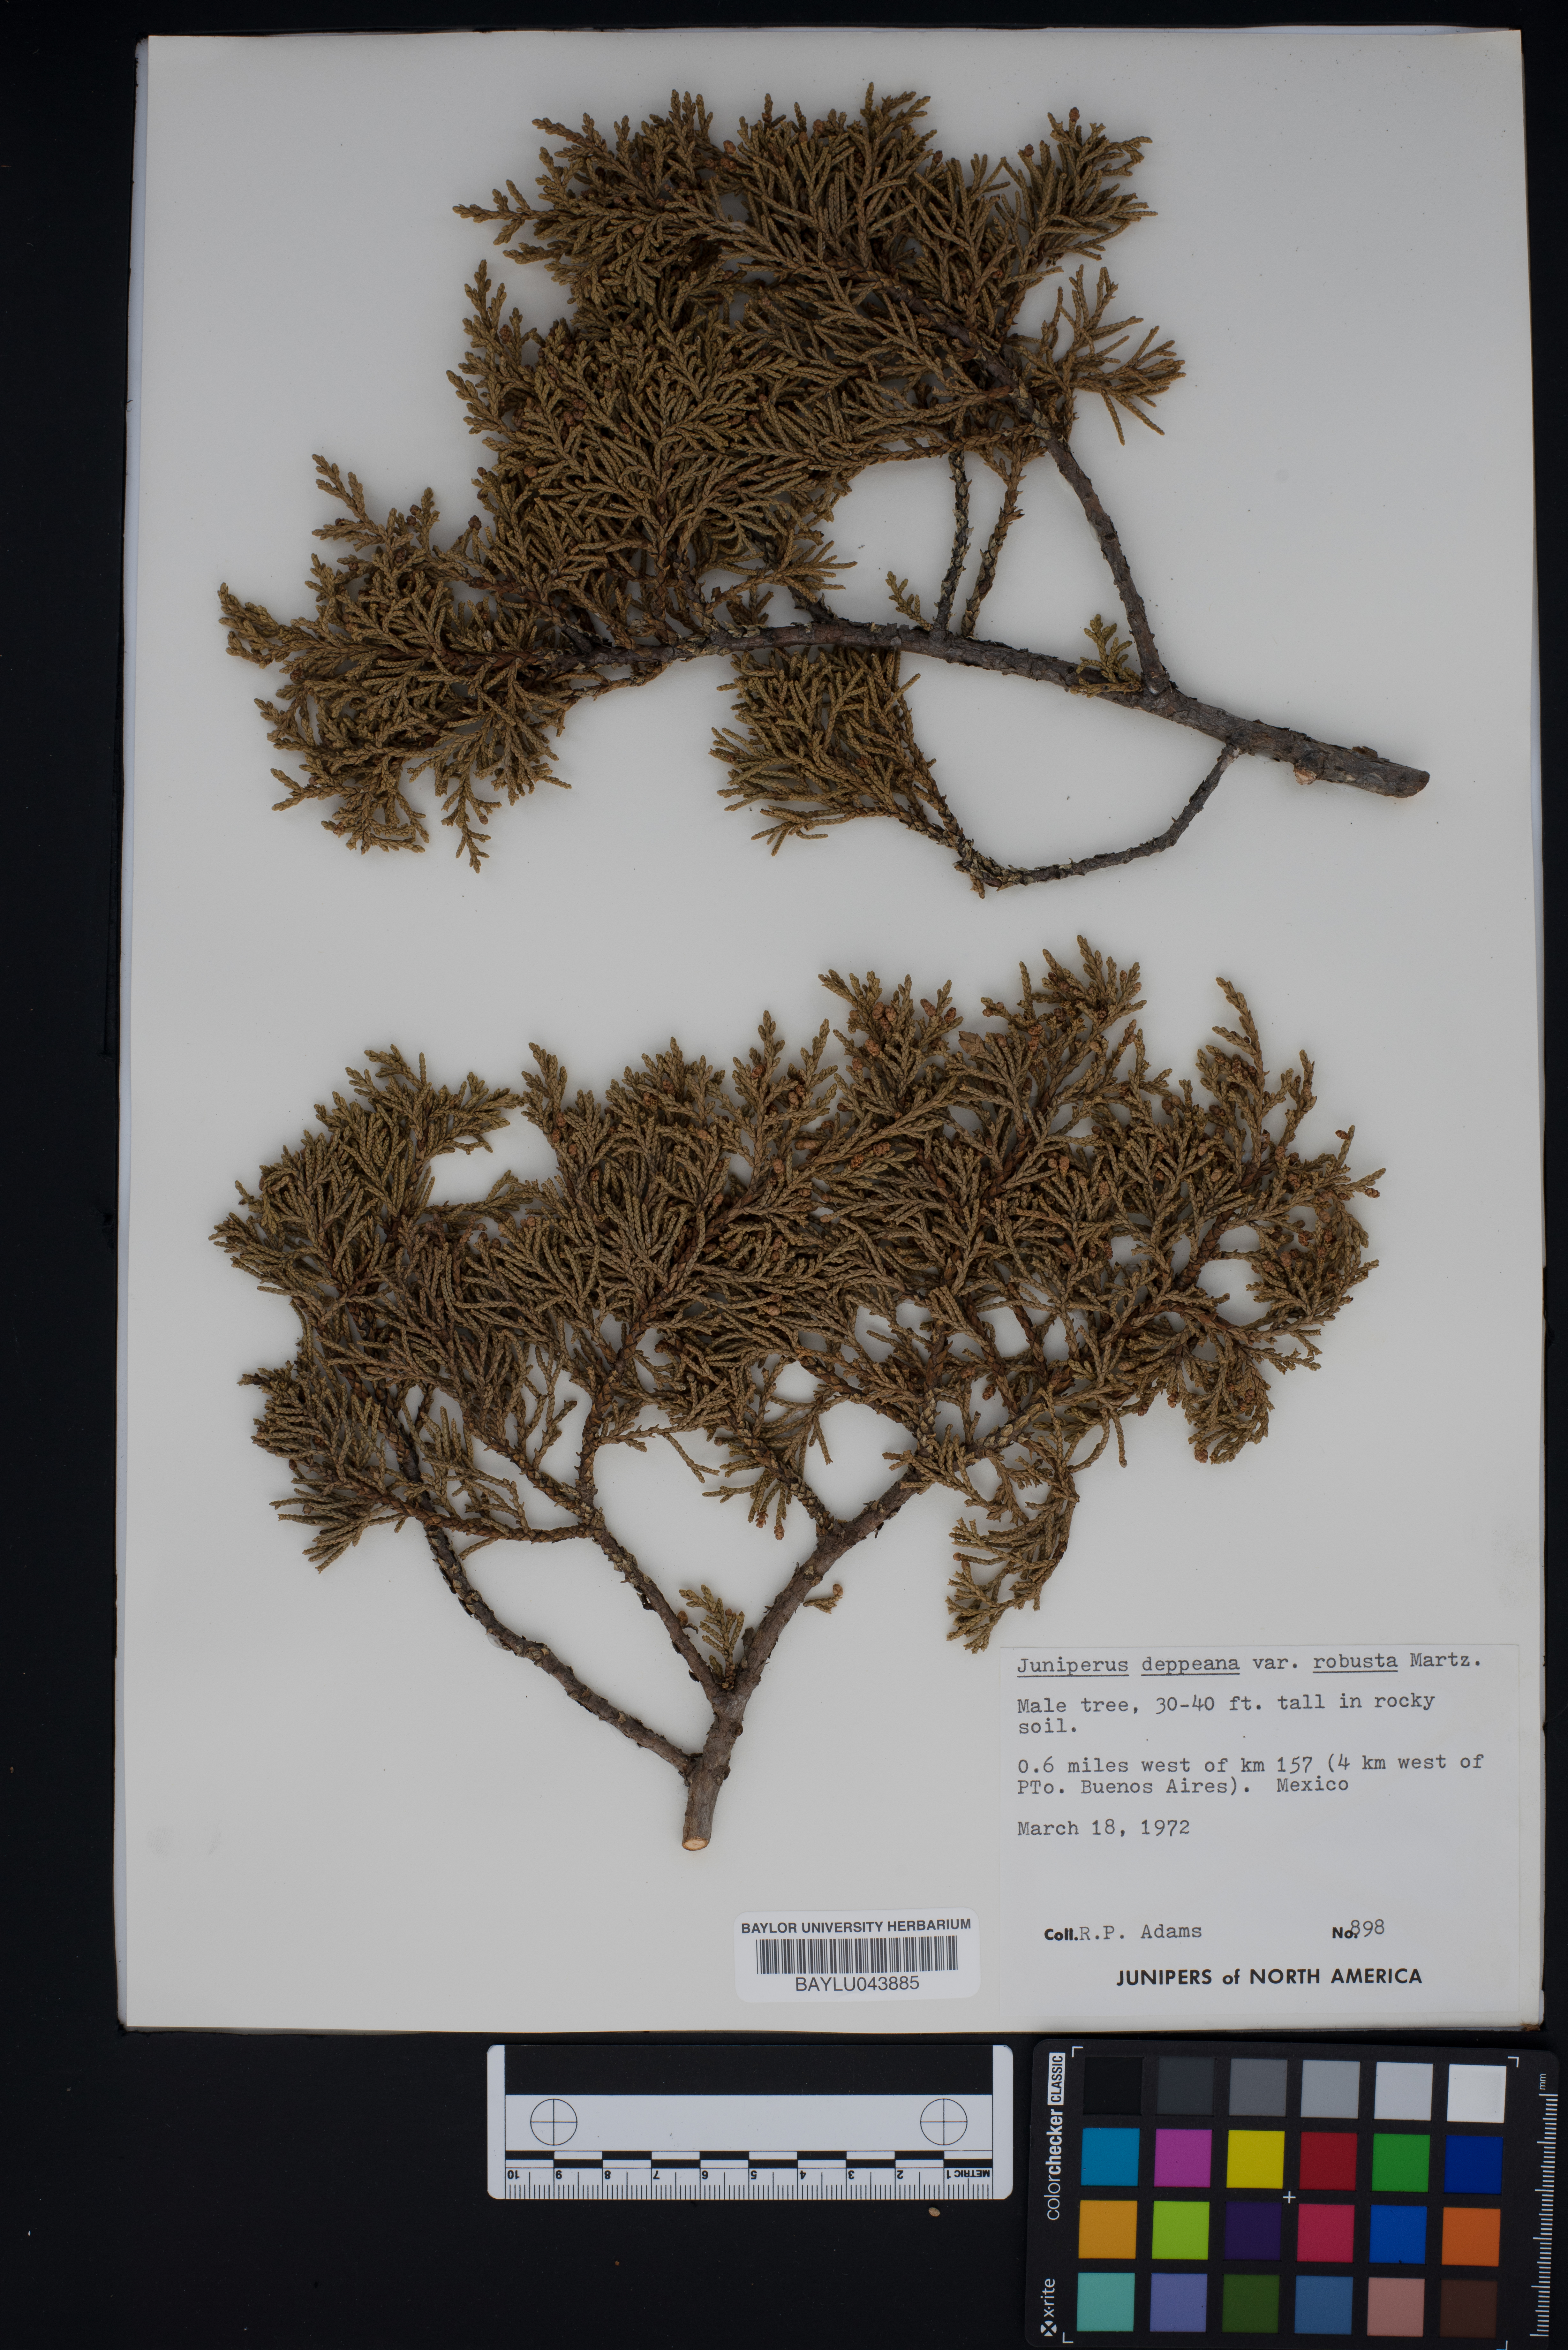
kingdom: Plantae
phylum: Tracheophyta
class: Pinopsida
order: Pinales
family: Cupressaceae
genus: Juniperus
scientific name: Juniperus deppeana
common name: Alligator juniper
